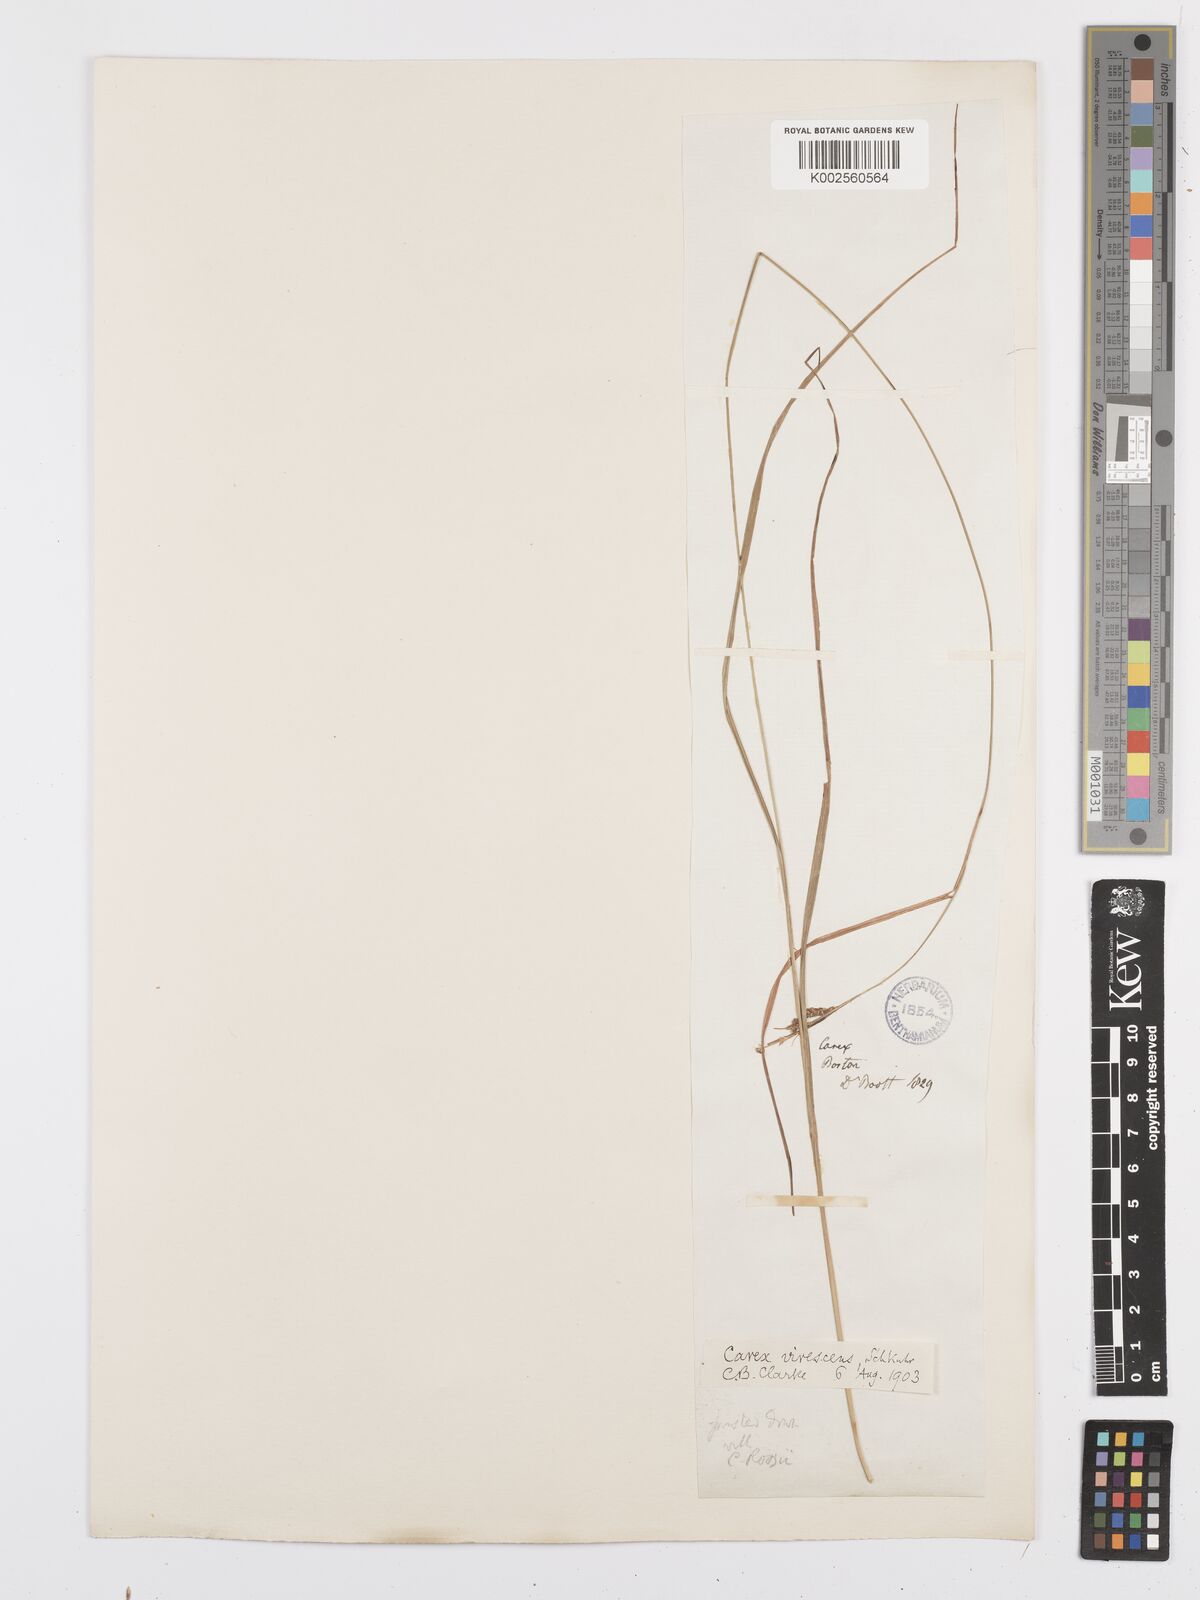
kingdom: Plantae
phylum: Tracheophyta
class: Liliopsida
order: Poales
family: Cyperaceae
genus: Carex
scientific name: Carex virescens
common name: Ribbed sedge
